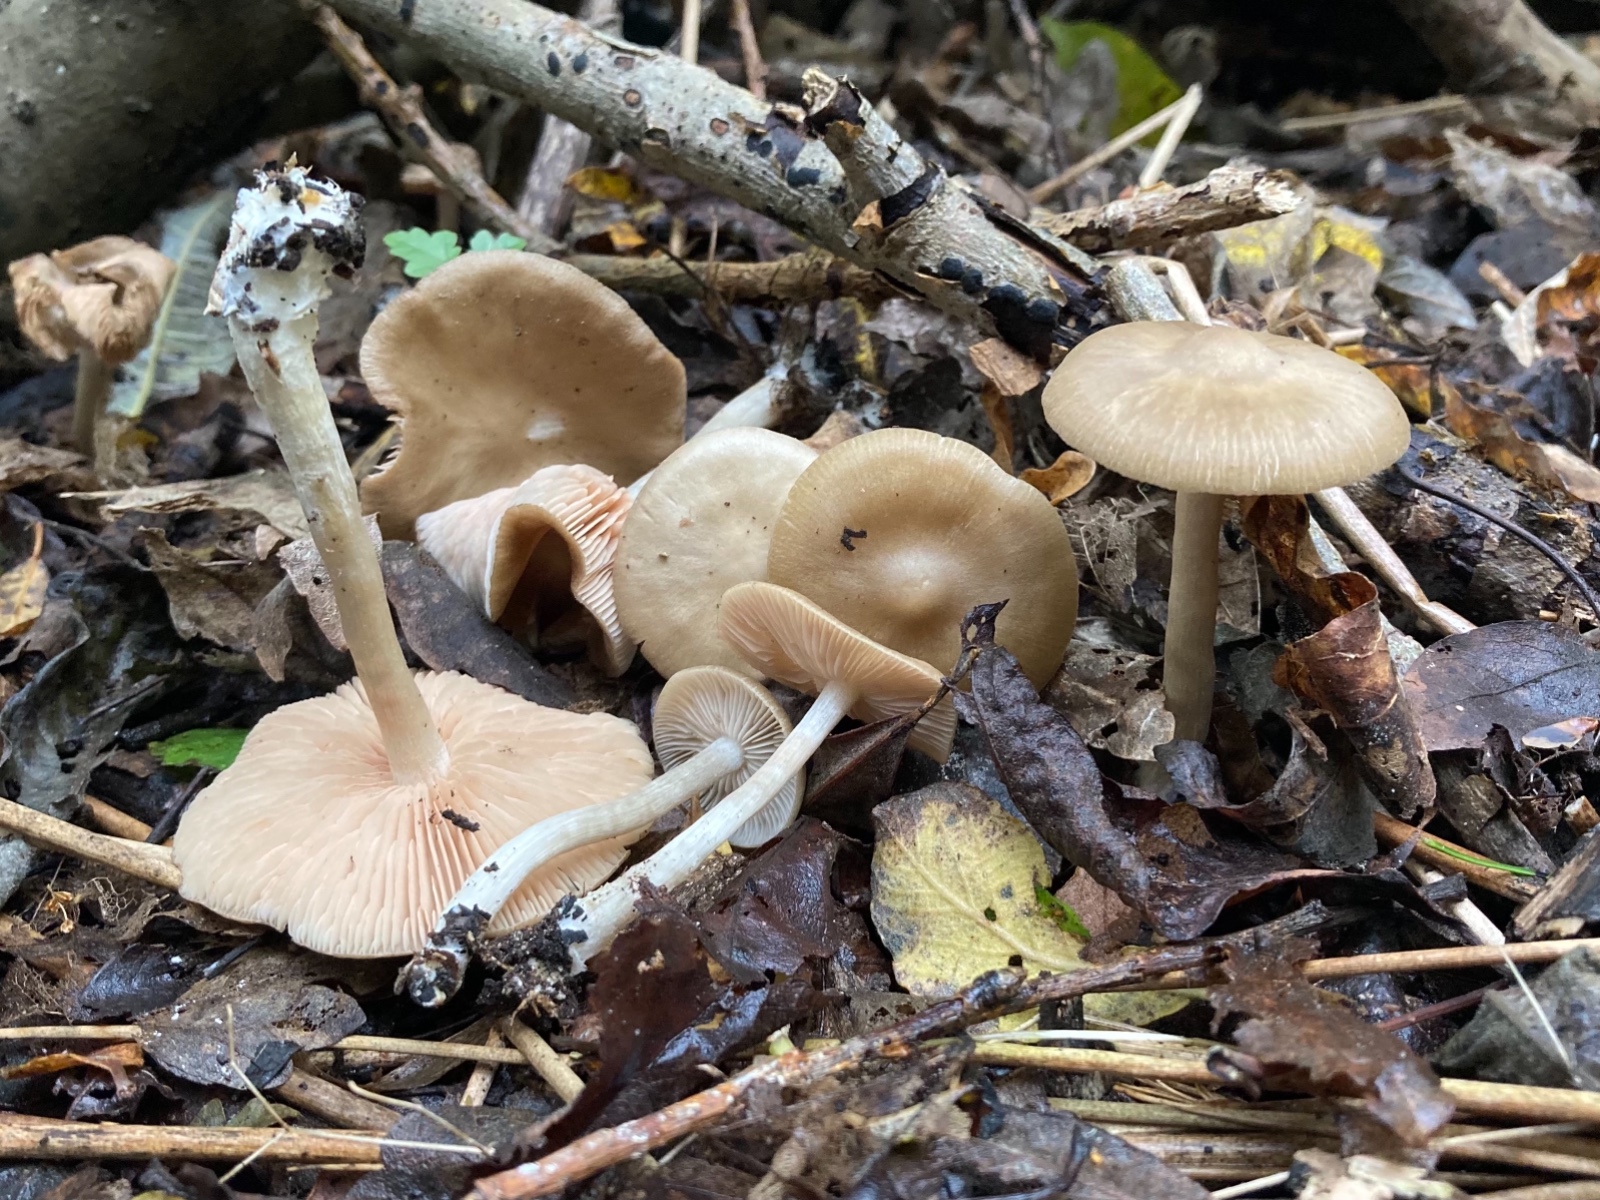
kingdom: Fungi
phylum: Basidiomycota
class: Agaricomycetes
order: Agaricales
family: Entolomataceae
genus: Entoloma
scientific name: Entoloma sericatum
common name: rank rødblad
